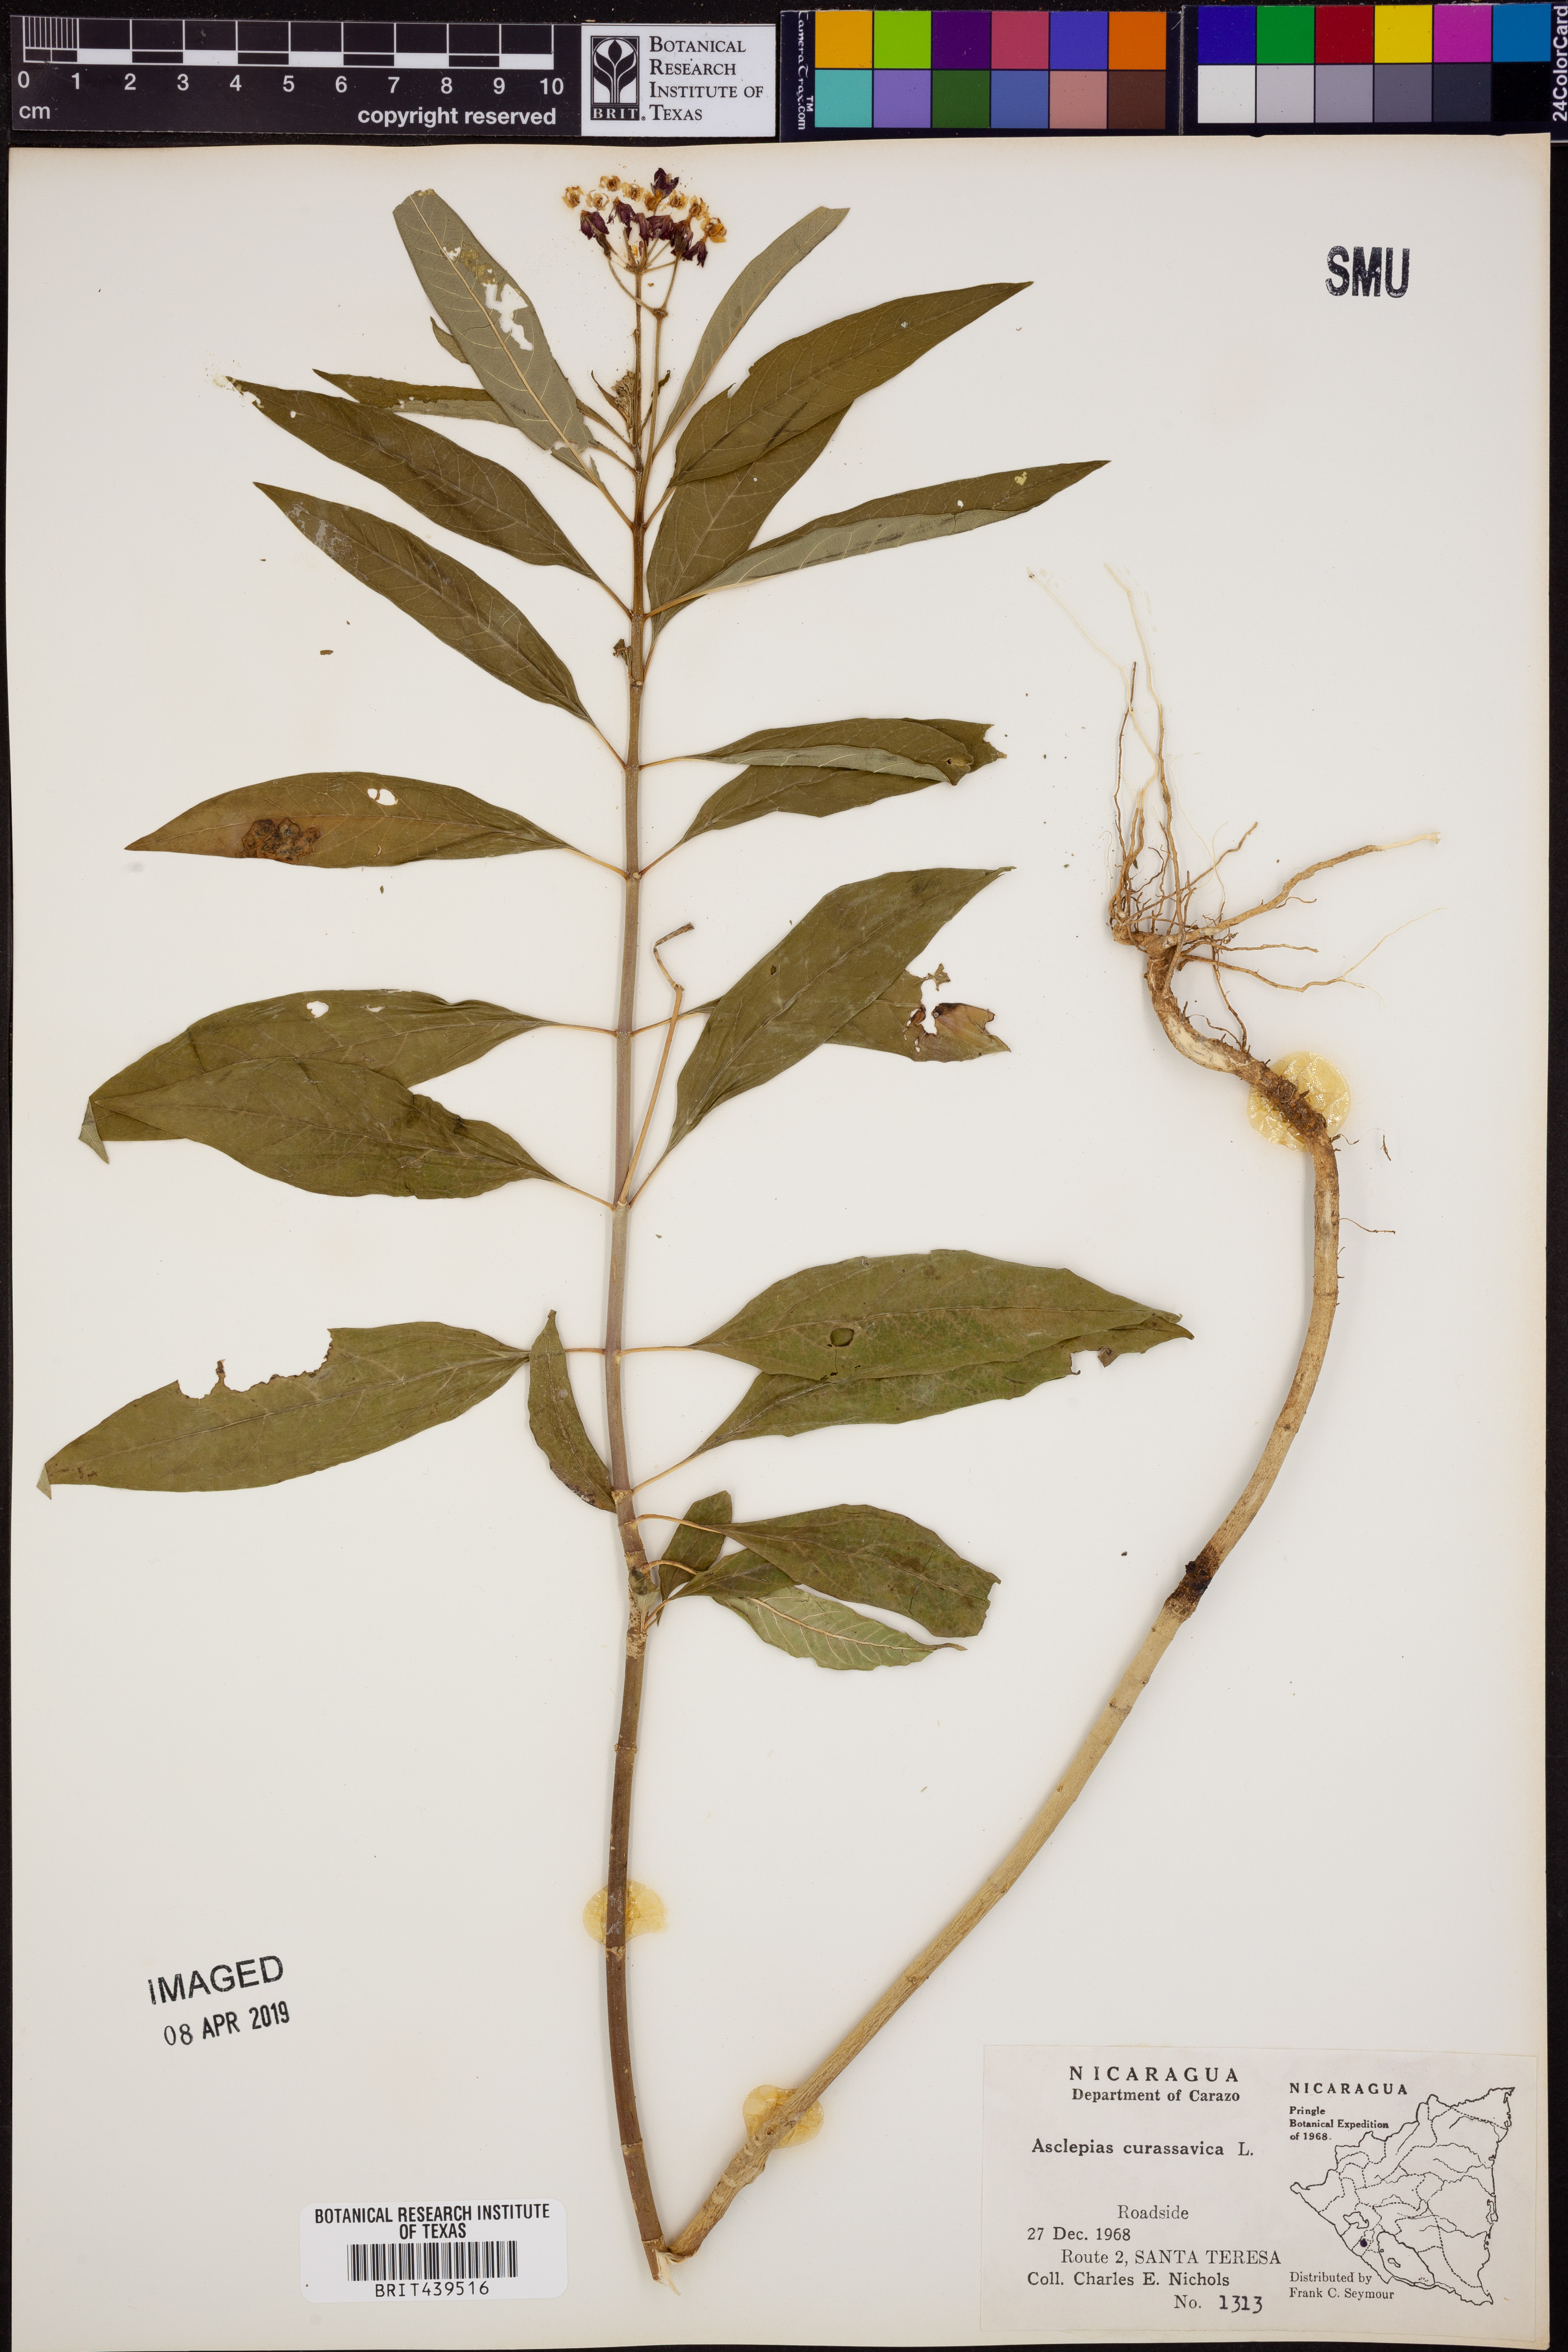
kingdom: Plantae
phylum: Tracheophyta
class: Magnoliopsida
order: Gentianales
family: Apocynaceae
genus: Asclepias
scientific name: Asclepias curassavica
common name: Bloodflower
